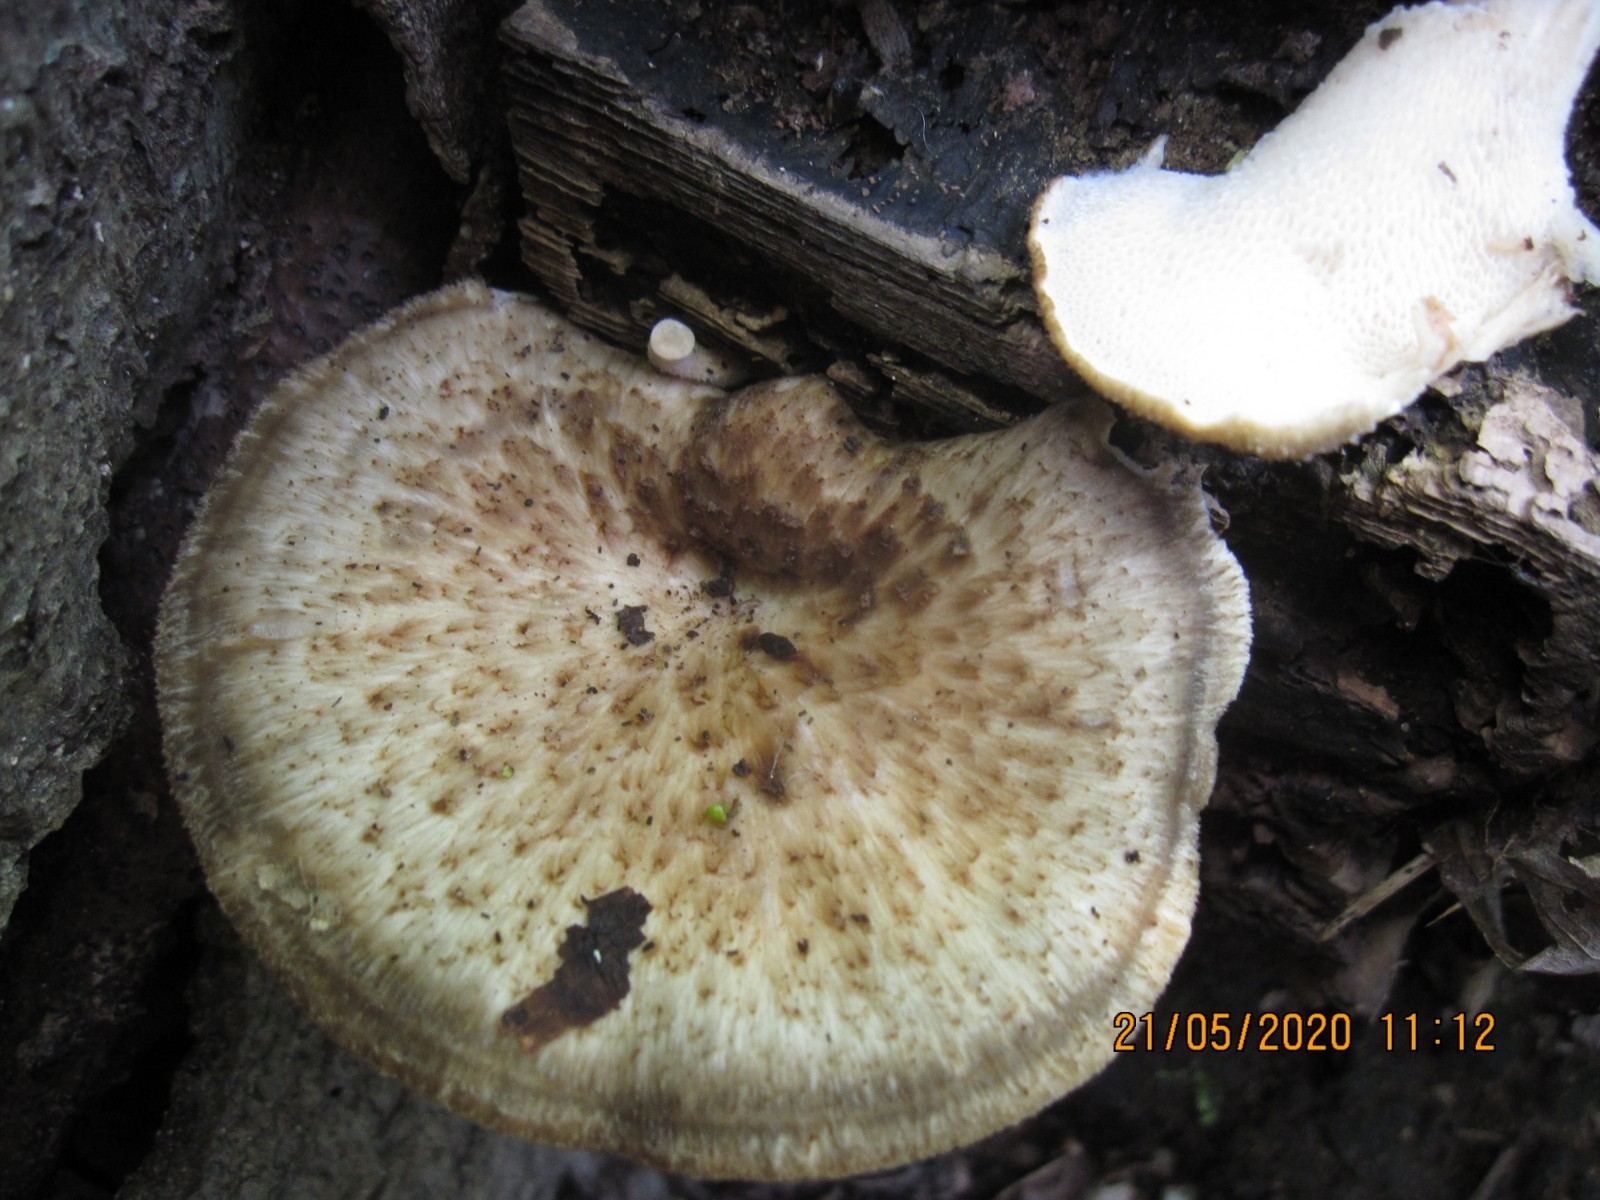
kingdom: Fungi
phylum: Basidiomycota
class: Agaricomycetes
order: Polyporales
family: Polyporaceae
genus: Cerioporus
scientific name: Cerioporus squamosus
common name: skællet stilkporesvamp
